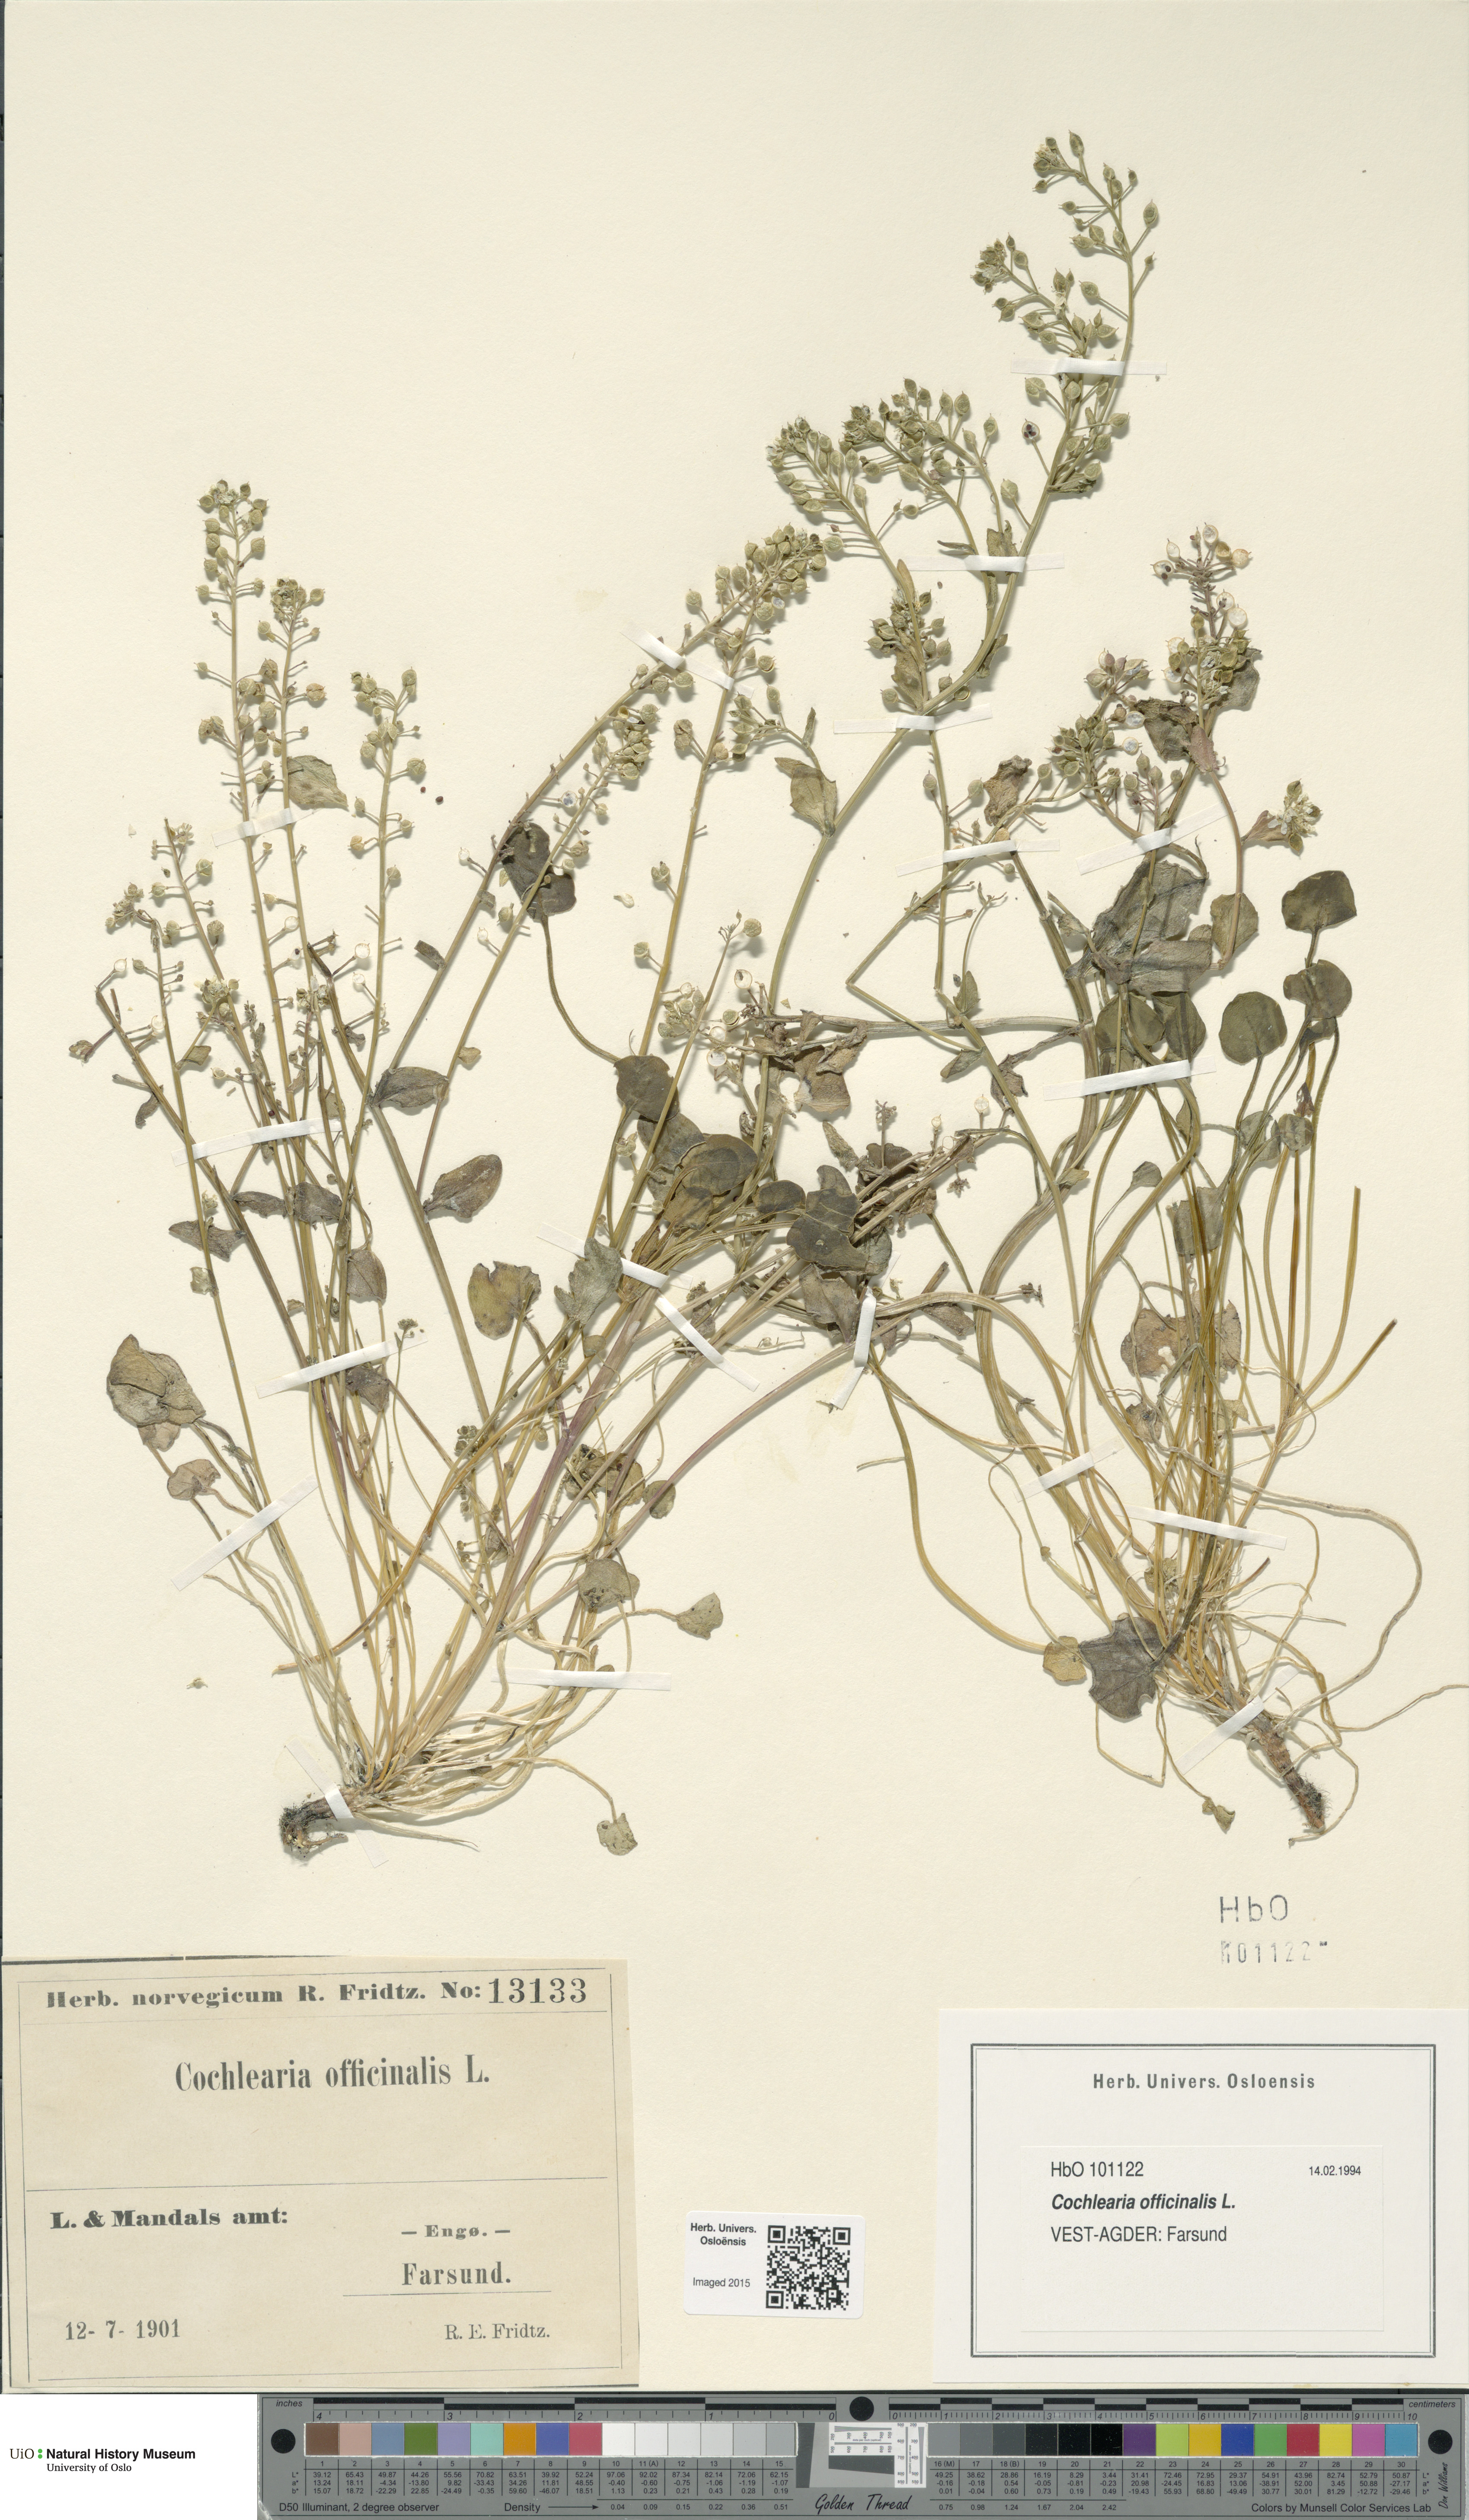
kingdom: Plantae
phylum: Tracheophyta
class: Magnoliopsida
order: Brassicales
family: Brassicaceae
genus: Cochlearia
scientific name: Cochlearia officinalis
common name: Scurvy-grass
